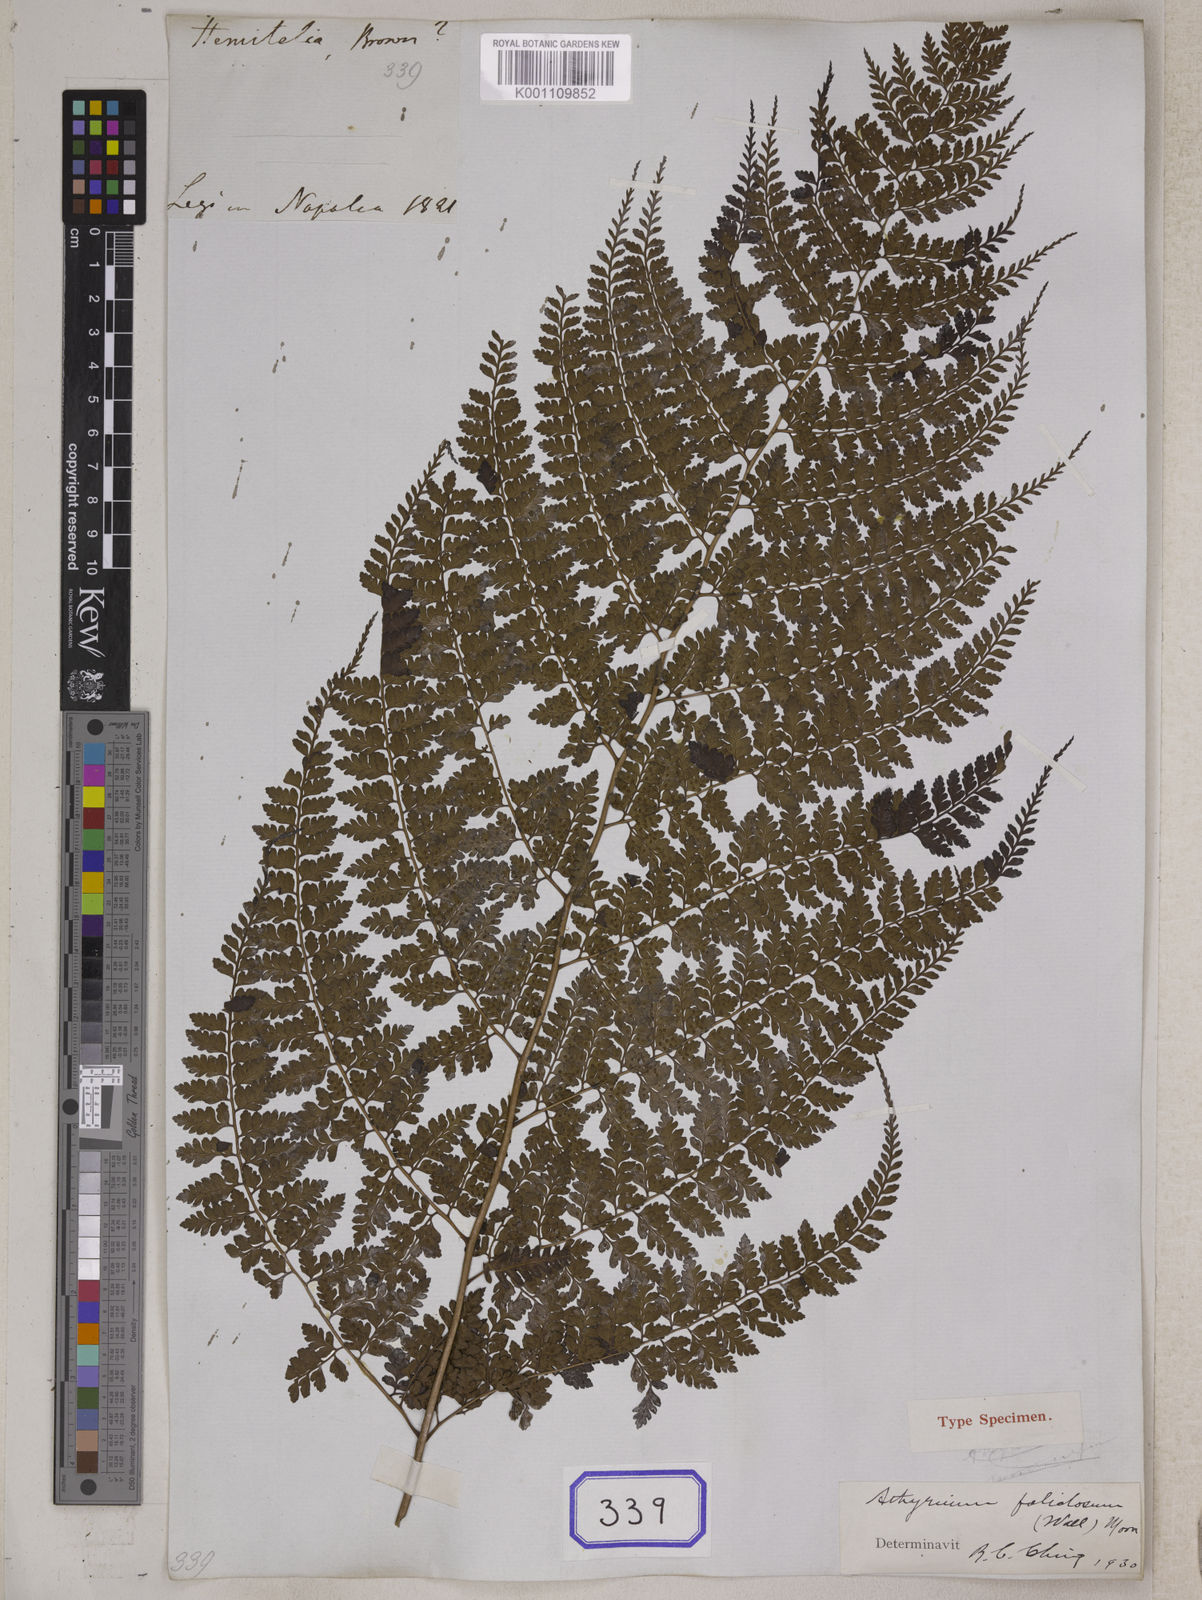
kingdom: Plantae
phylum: Tracheophyta
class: Polypodiopsida
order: Polypodiales
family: Athyriaceae
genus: Athyrium
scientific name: Athyrium fimbriatum
